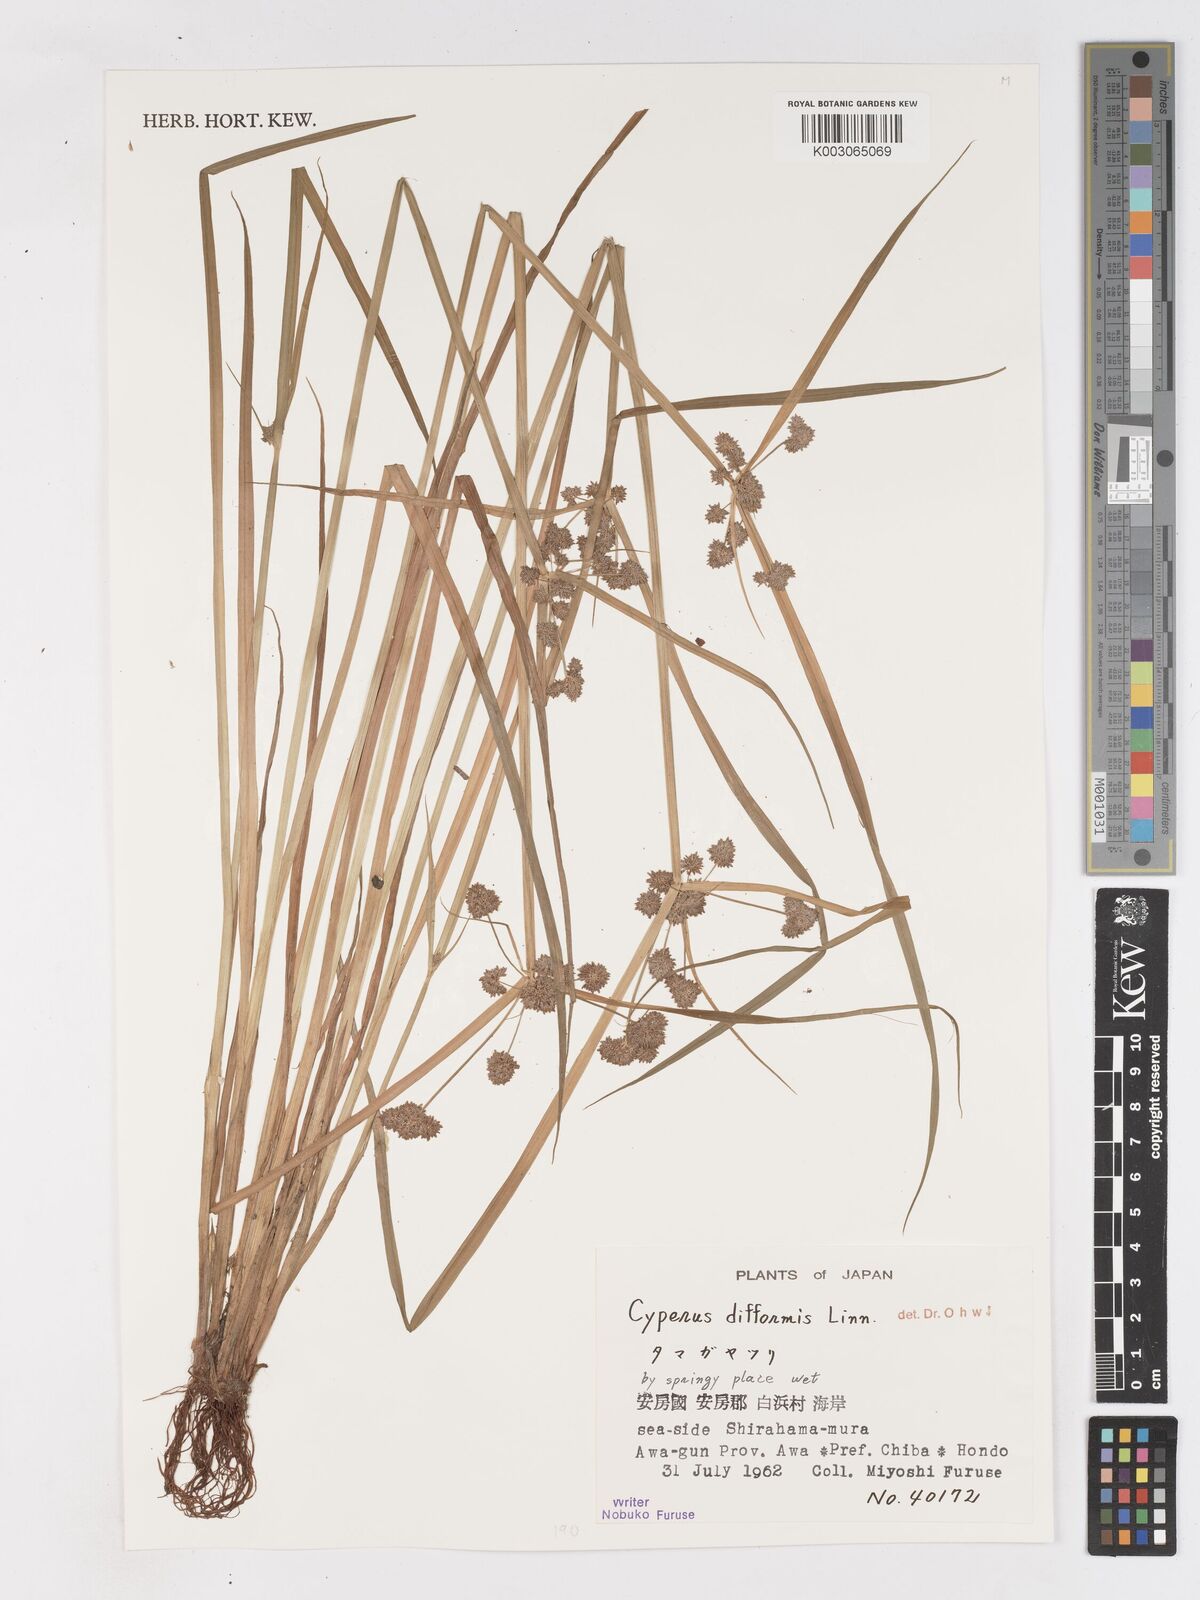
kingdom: Plantae
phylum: Tracheophyta
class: Liliopsida
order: Poales
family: Cyperaceae
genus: Cyperus
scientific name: Cyperus difformis
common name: Variable flatsedge
